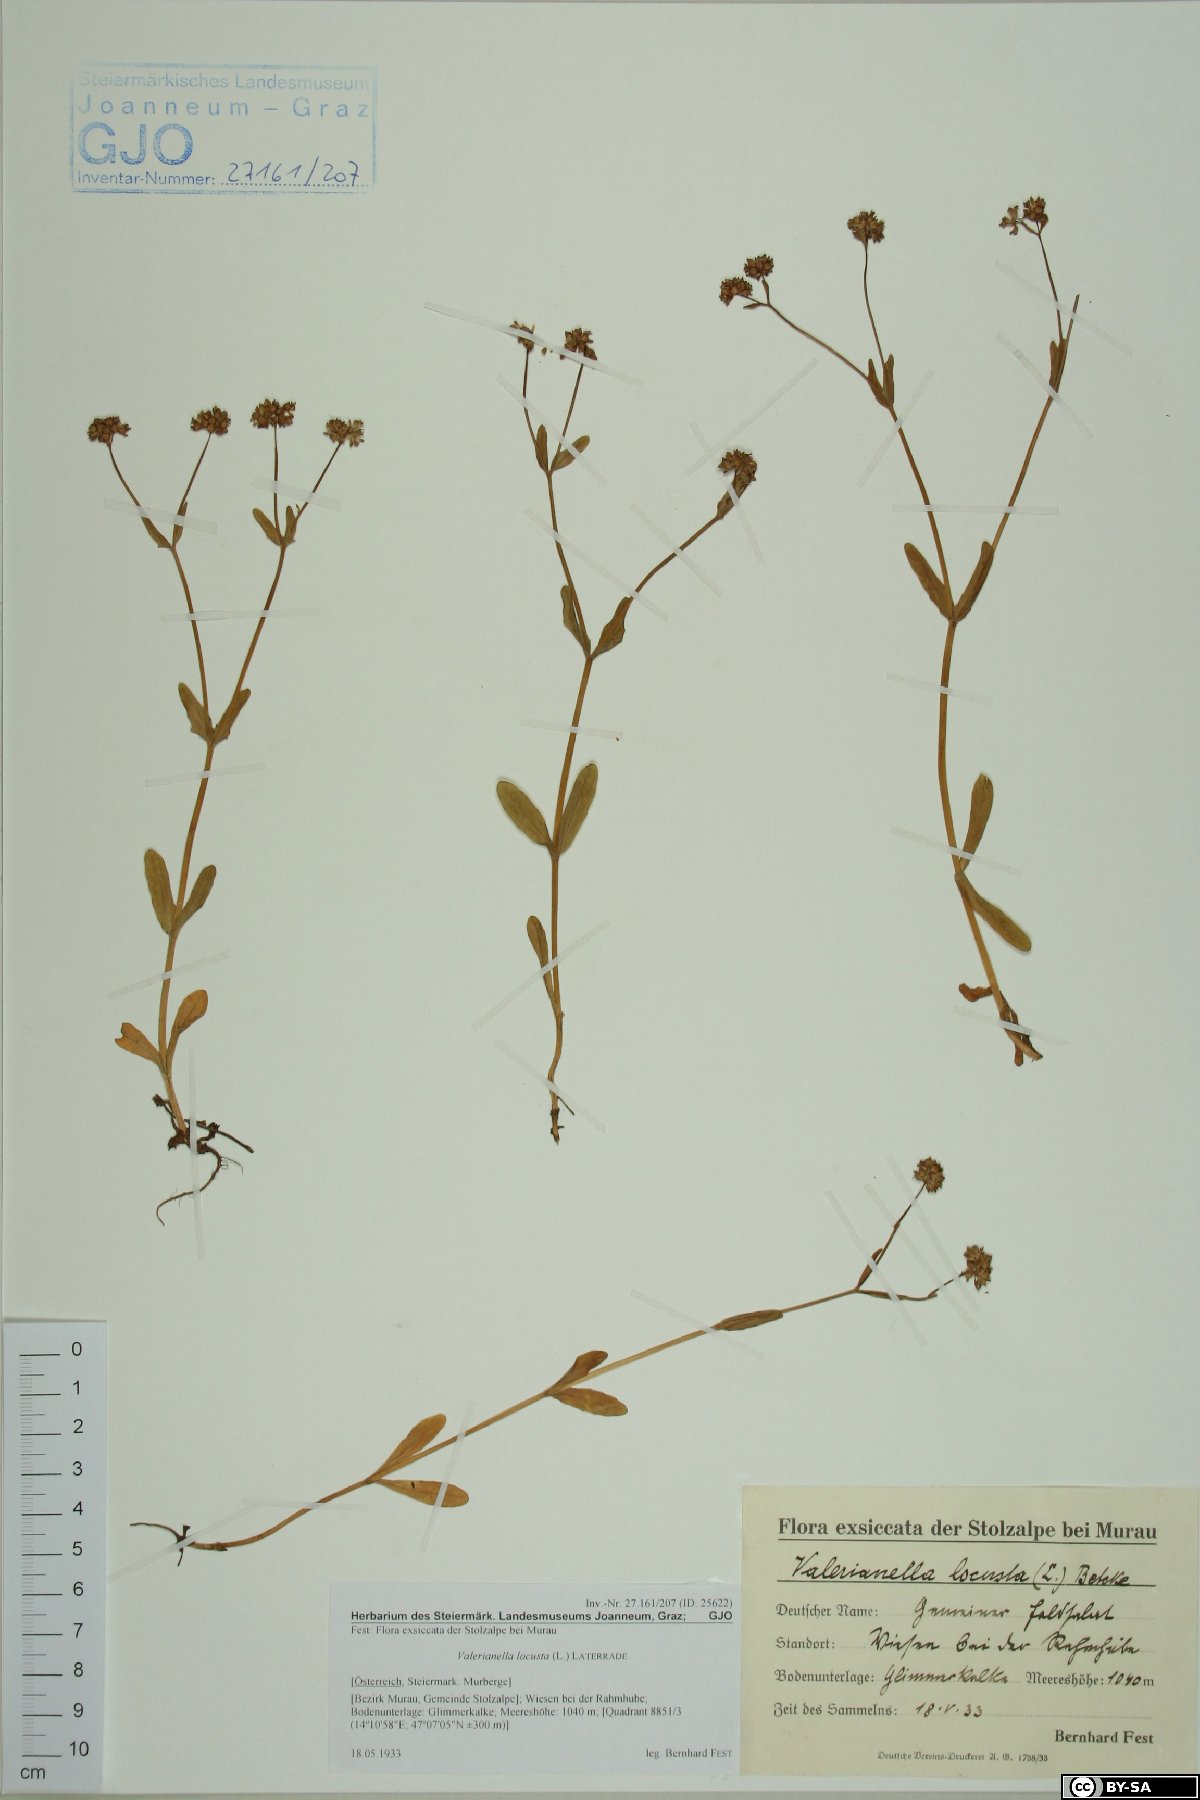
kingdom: Plantae
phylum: Tracheophyta
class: Magnoliopsida
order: Dipsacales
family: Caprifoliaceae
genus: Valerianella
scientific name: Valerianella locusta
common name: Common cornsalad
